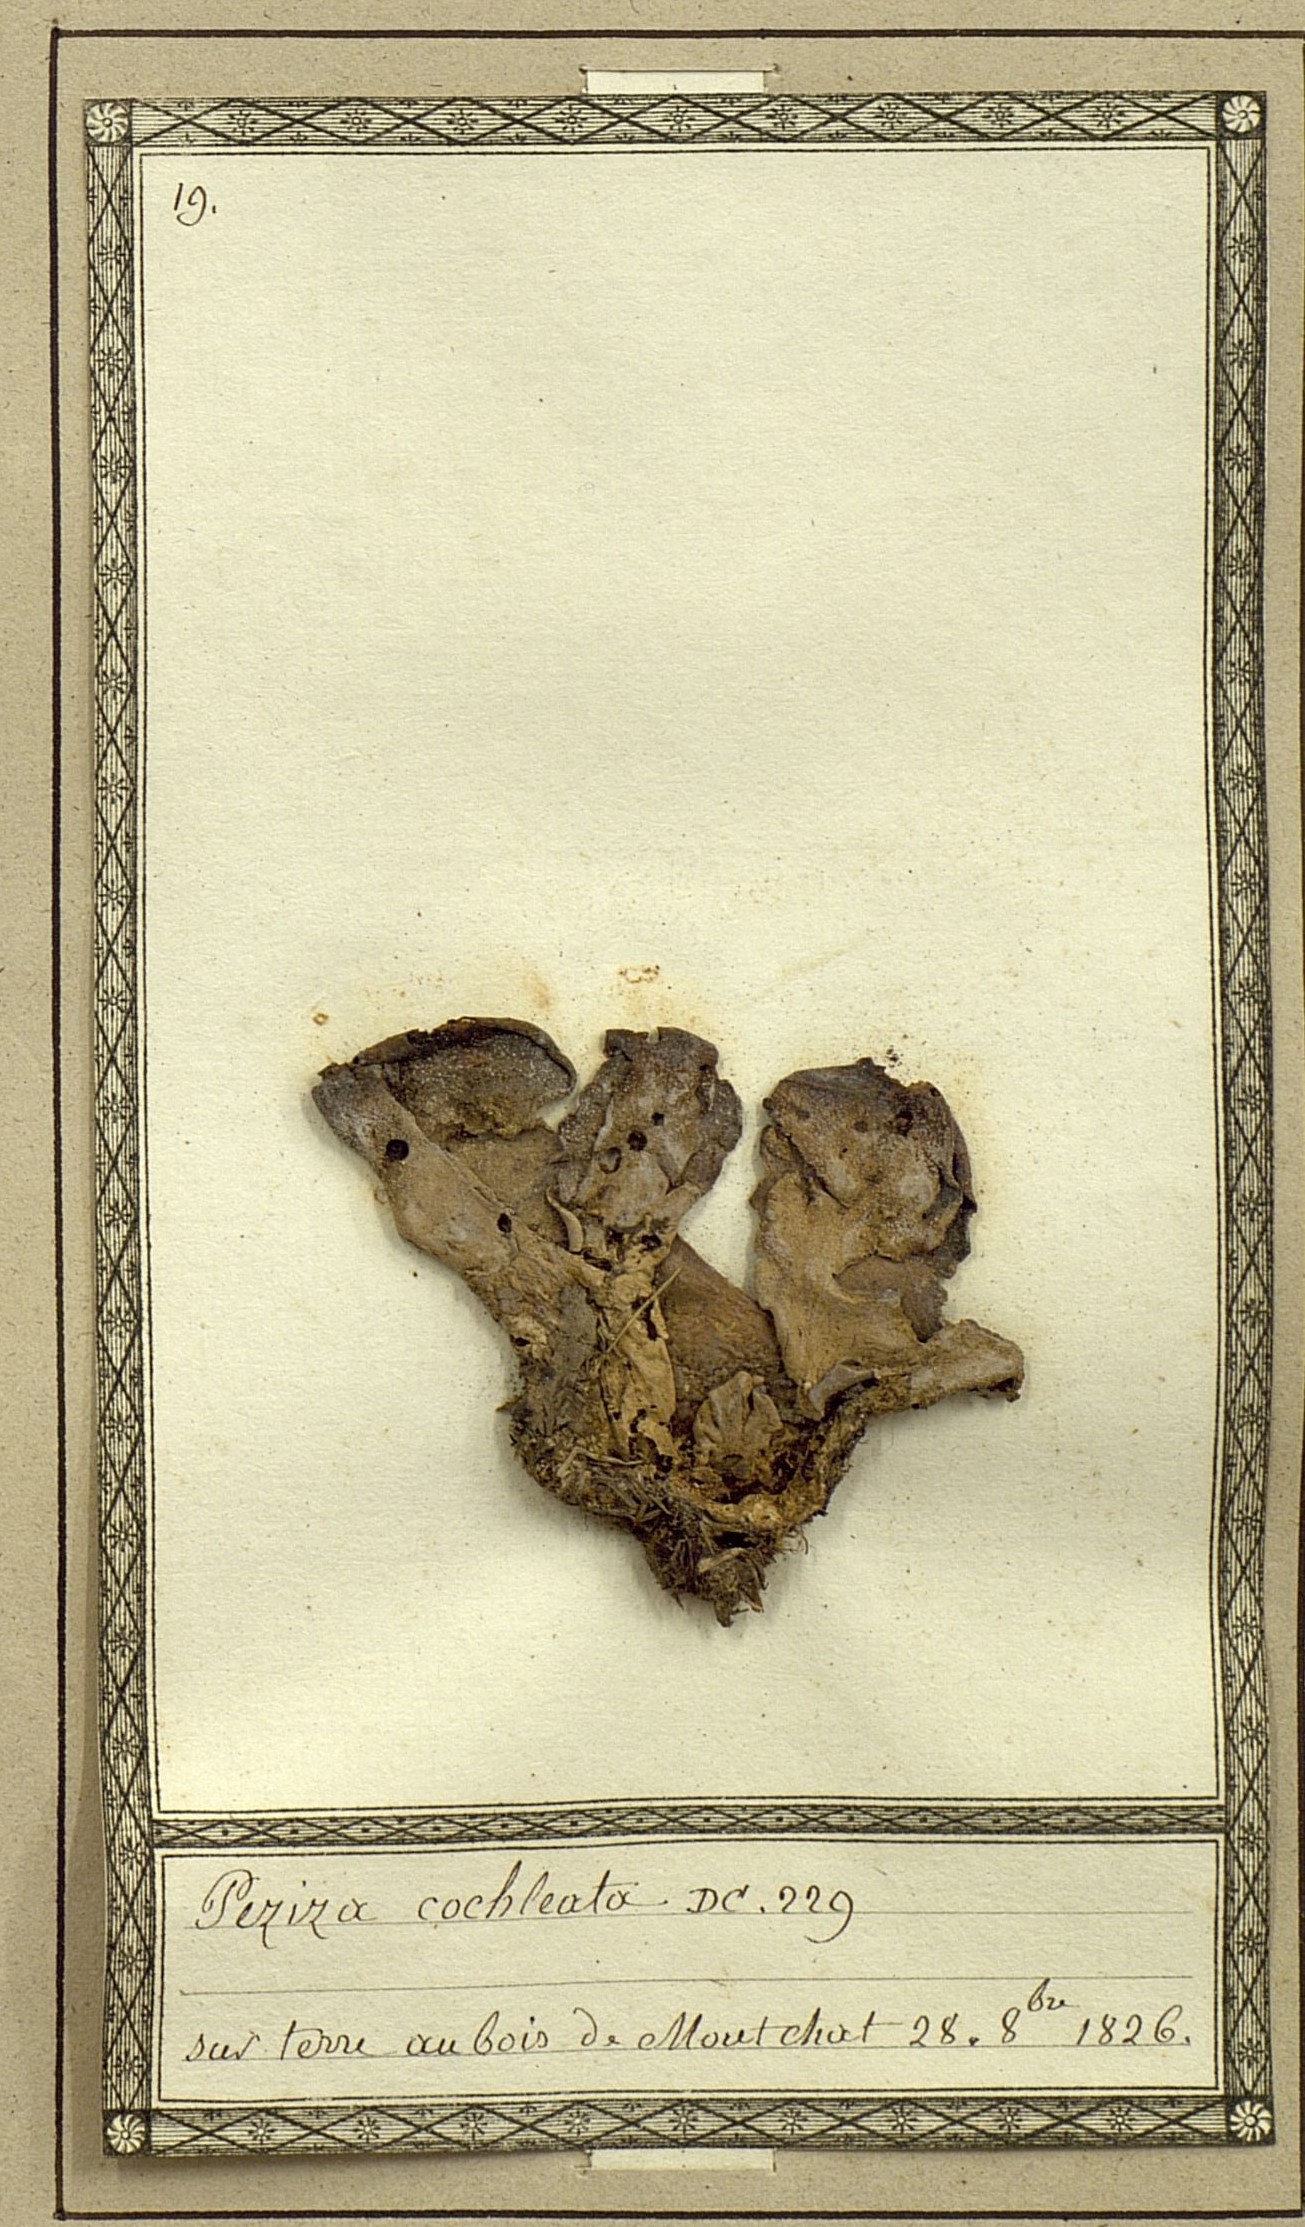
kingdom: Fungi
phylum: Ascomycota
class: Pezizomycetes
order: Pezizales
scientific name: Pezizales
